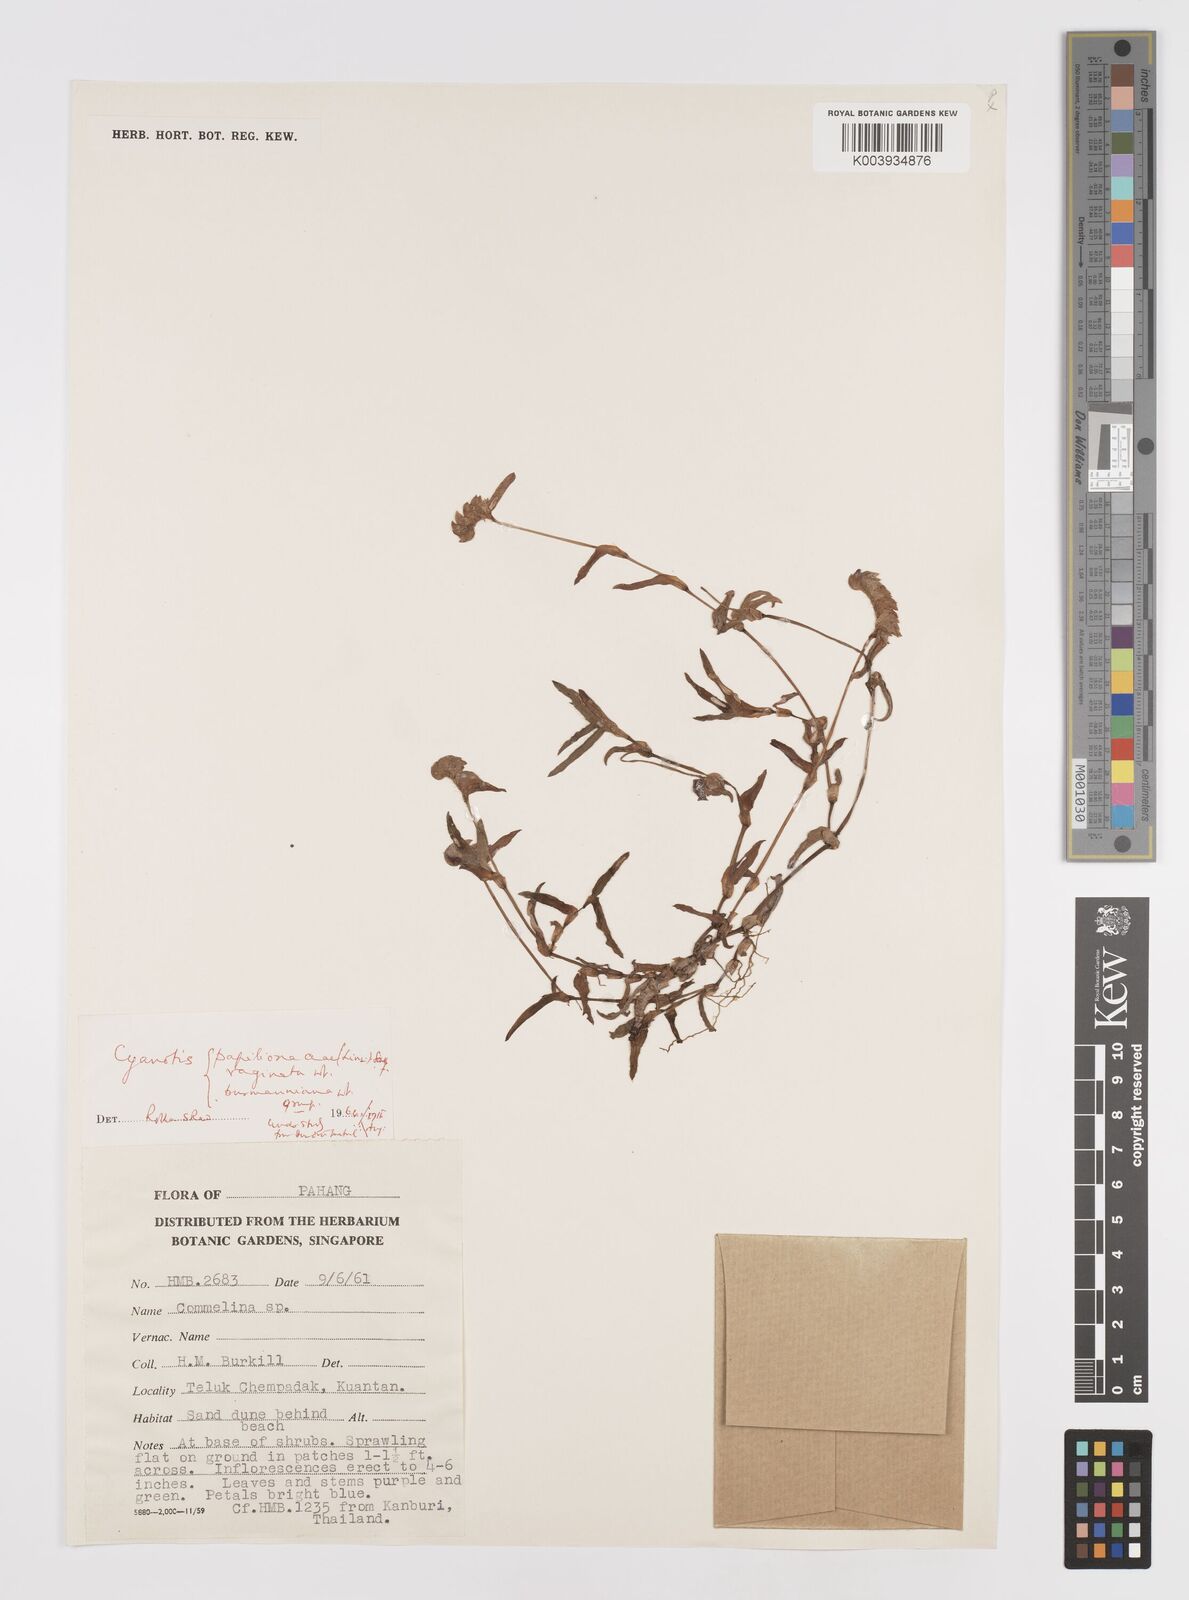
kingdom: Plantae
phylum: Tracheophyta
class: Liliopsida
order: Commelinales
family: Commelinaceae
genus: Cyanotis
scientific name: Cyanotis
